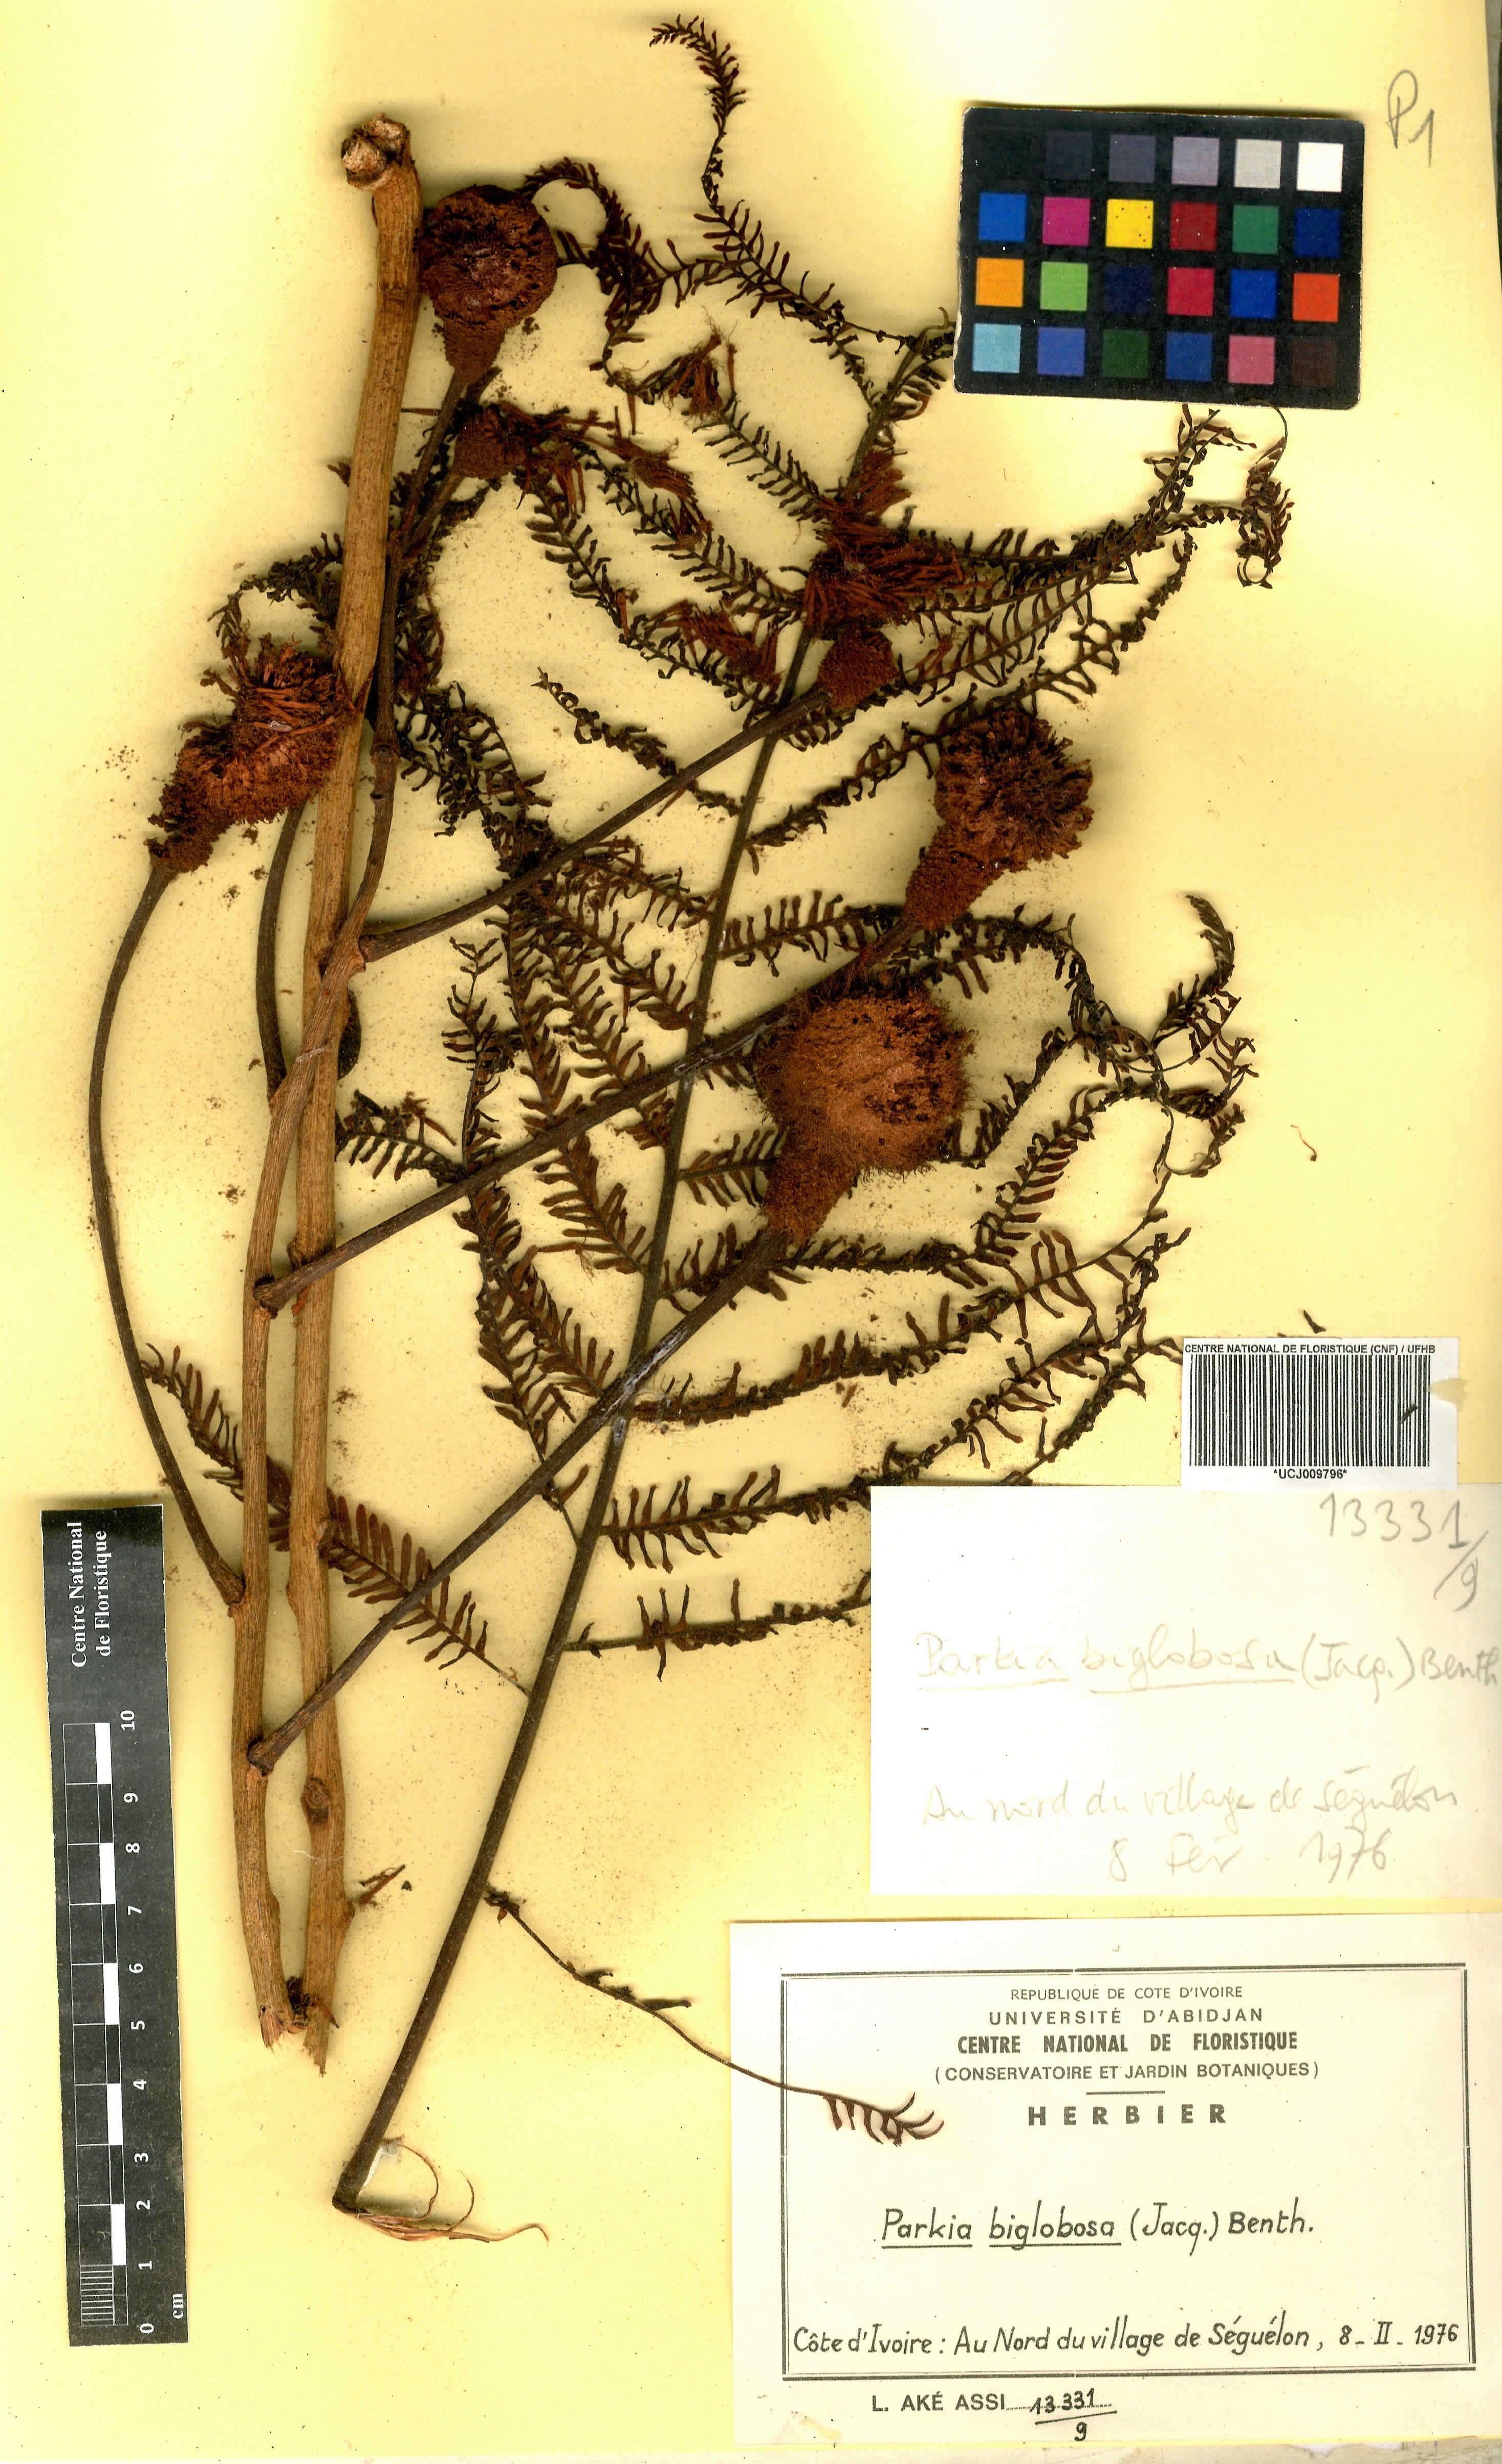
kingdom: Plantae
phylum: Tracheophyta
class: Magnoliopsida
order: Fabales
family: Fabaceae
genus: Parkia
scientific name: Parkia timoriana
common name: Legume
